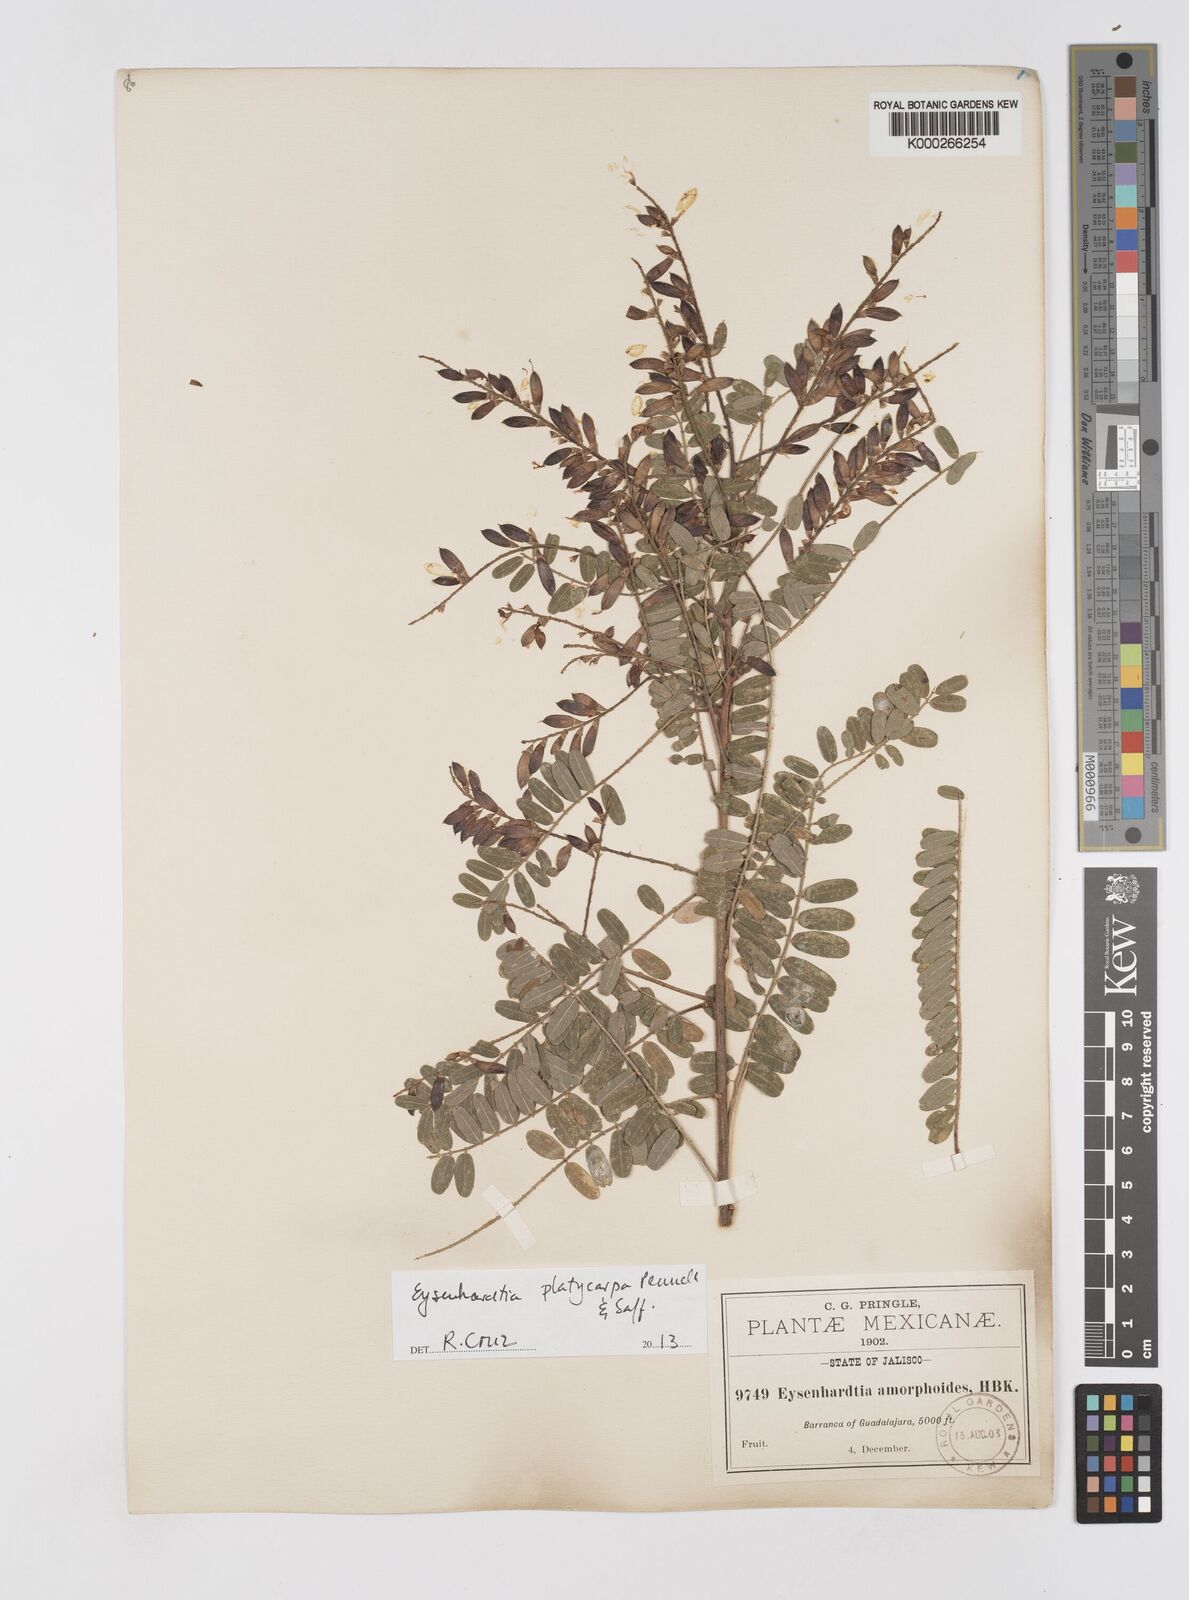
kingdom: Plantae
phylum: Tracheophyta
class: Magnoliopsida
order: Fabales
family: Fabaceae
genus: Eysenhardtia
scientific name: Eysenhardtia platycarpa
